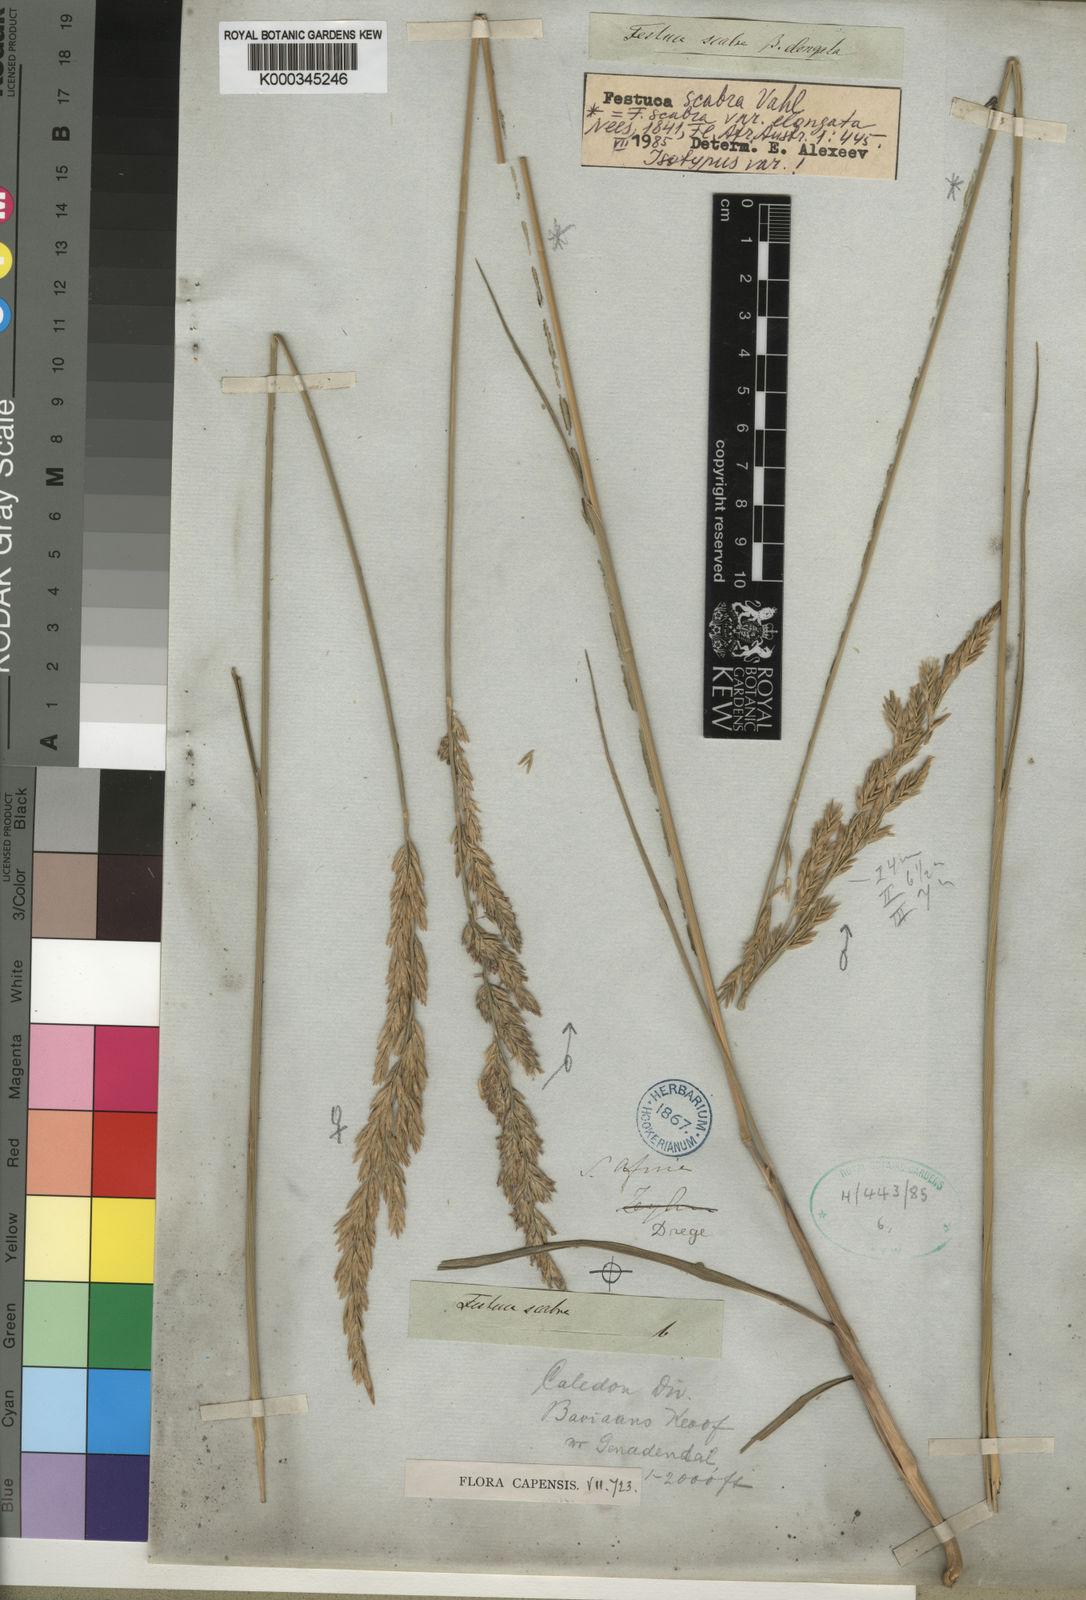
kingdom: Plantae
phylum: Tracheophyta
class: Liliopsida
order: Poales
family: Poaceae
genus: Festuca
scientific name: Festuca scabra
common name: Munnik fescue
